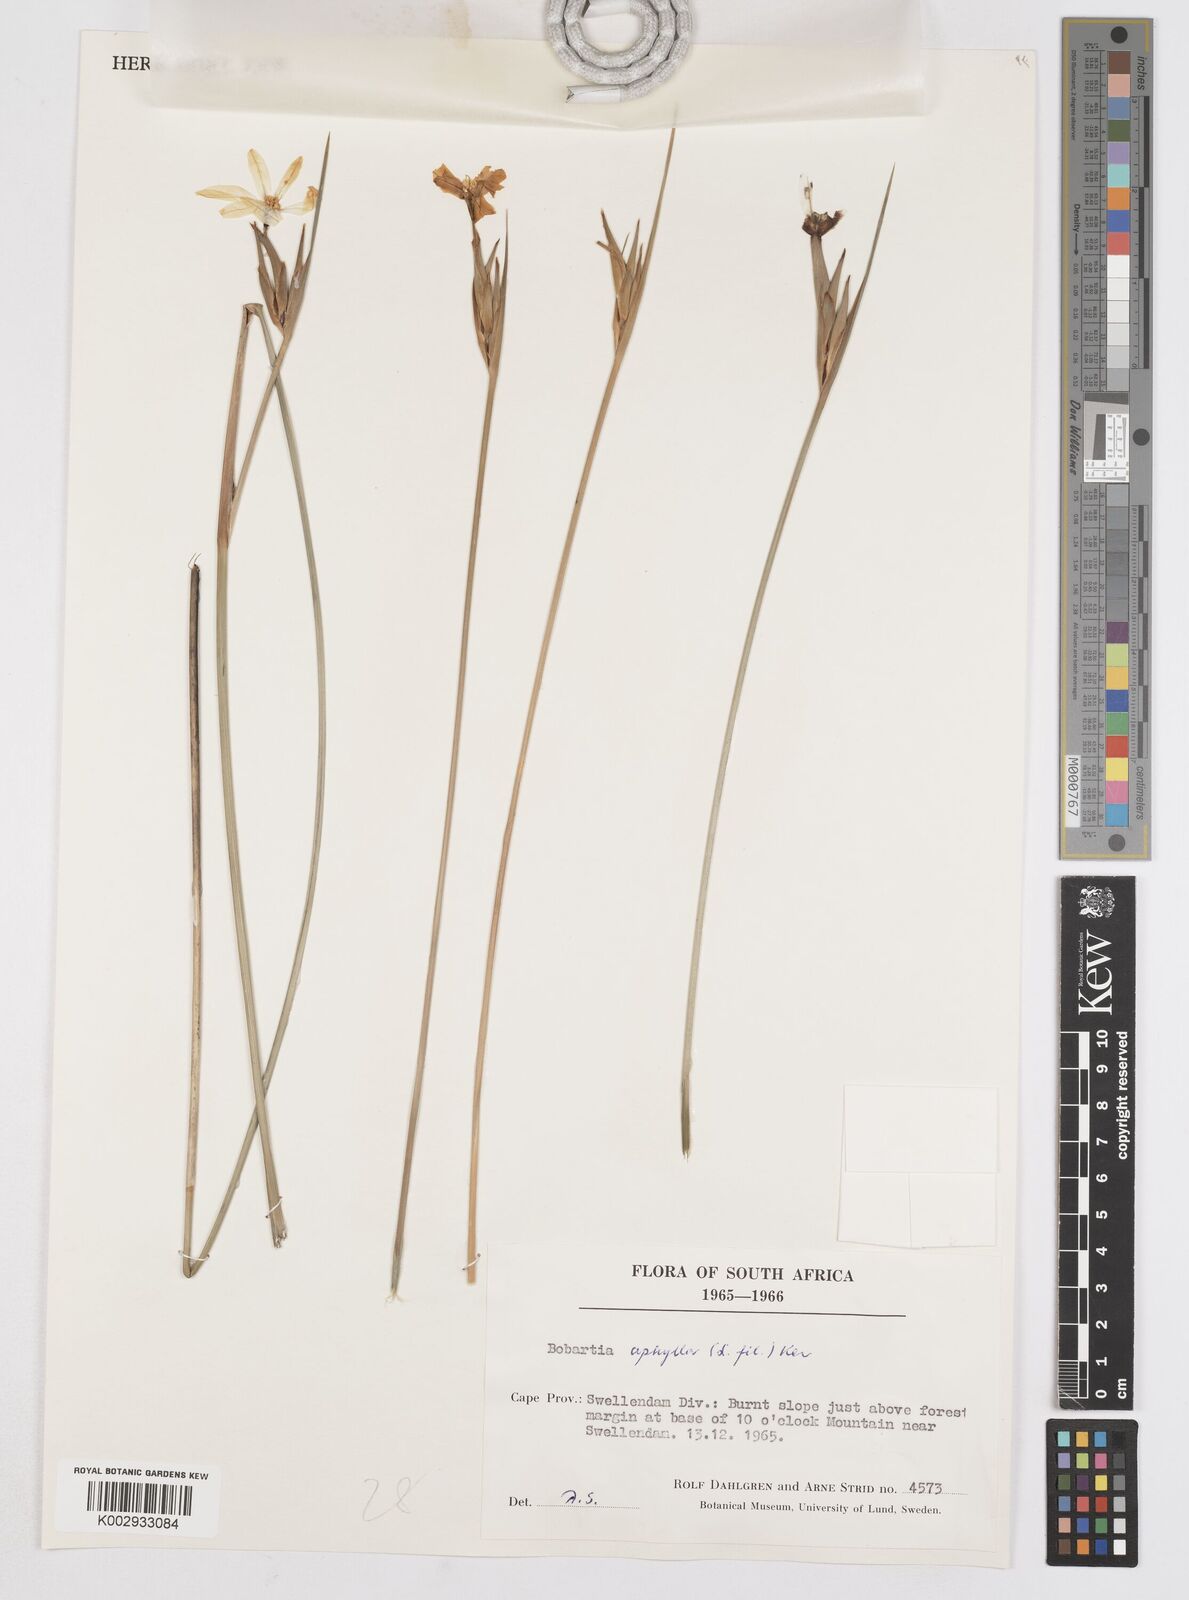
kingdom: Plantae
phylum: Tracheophyta
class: Liliopsida
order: Asparagales
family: Iridaceae
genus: Bobartia
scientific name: Bobartia aphylla
